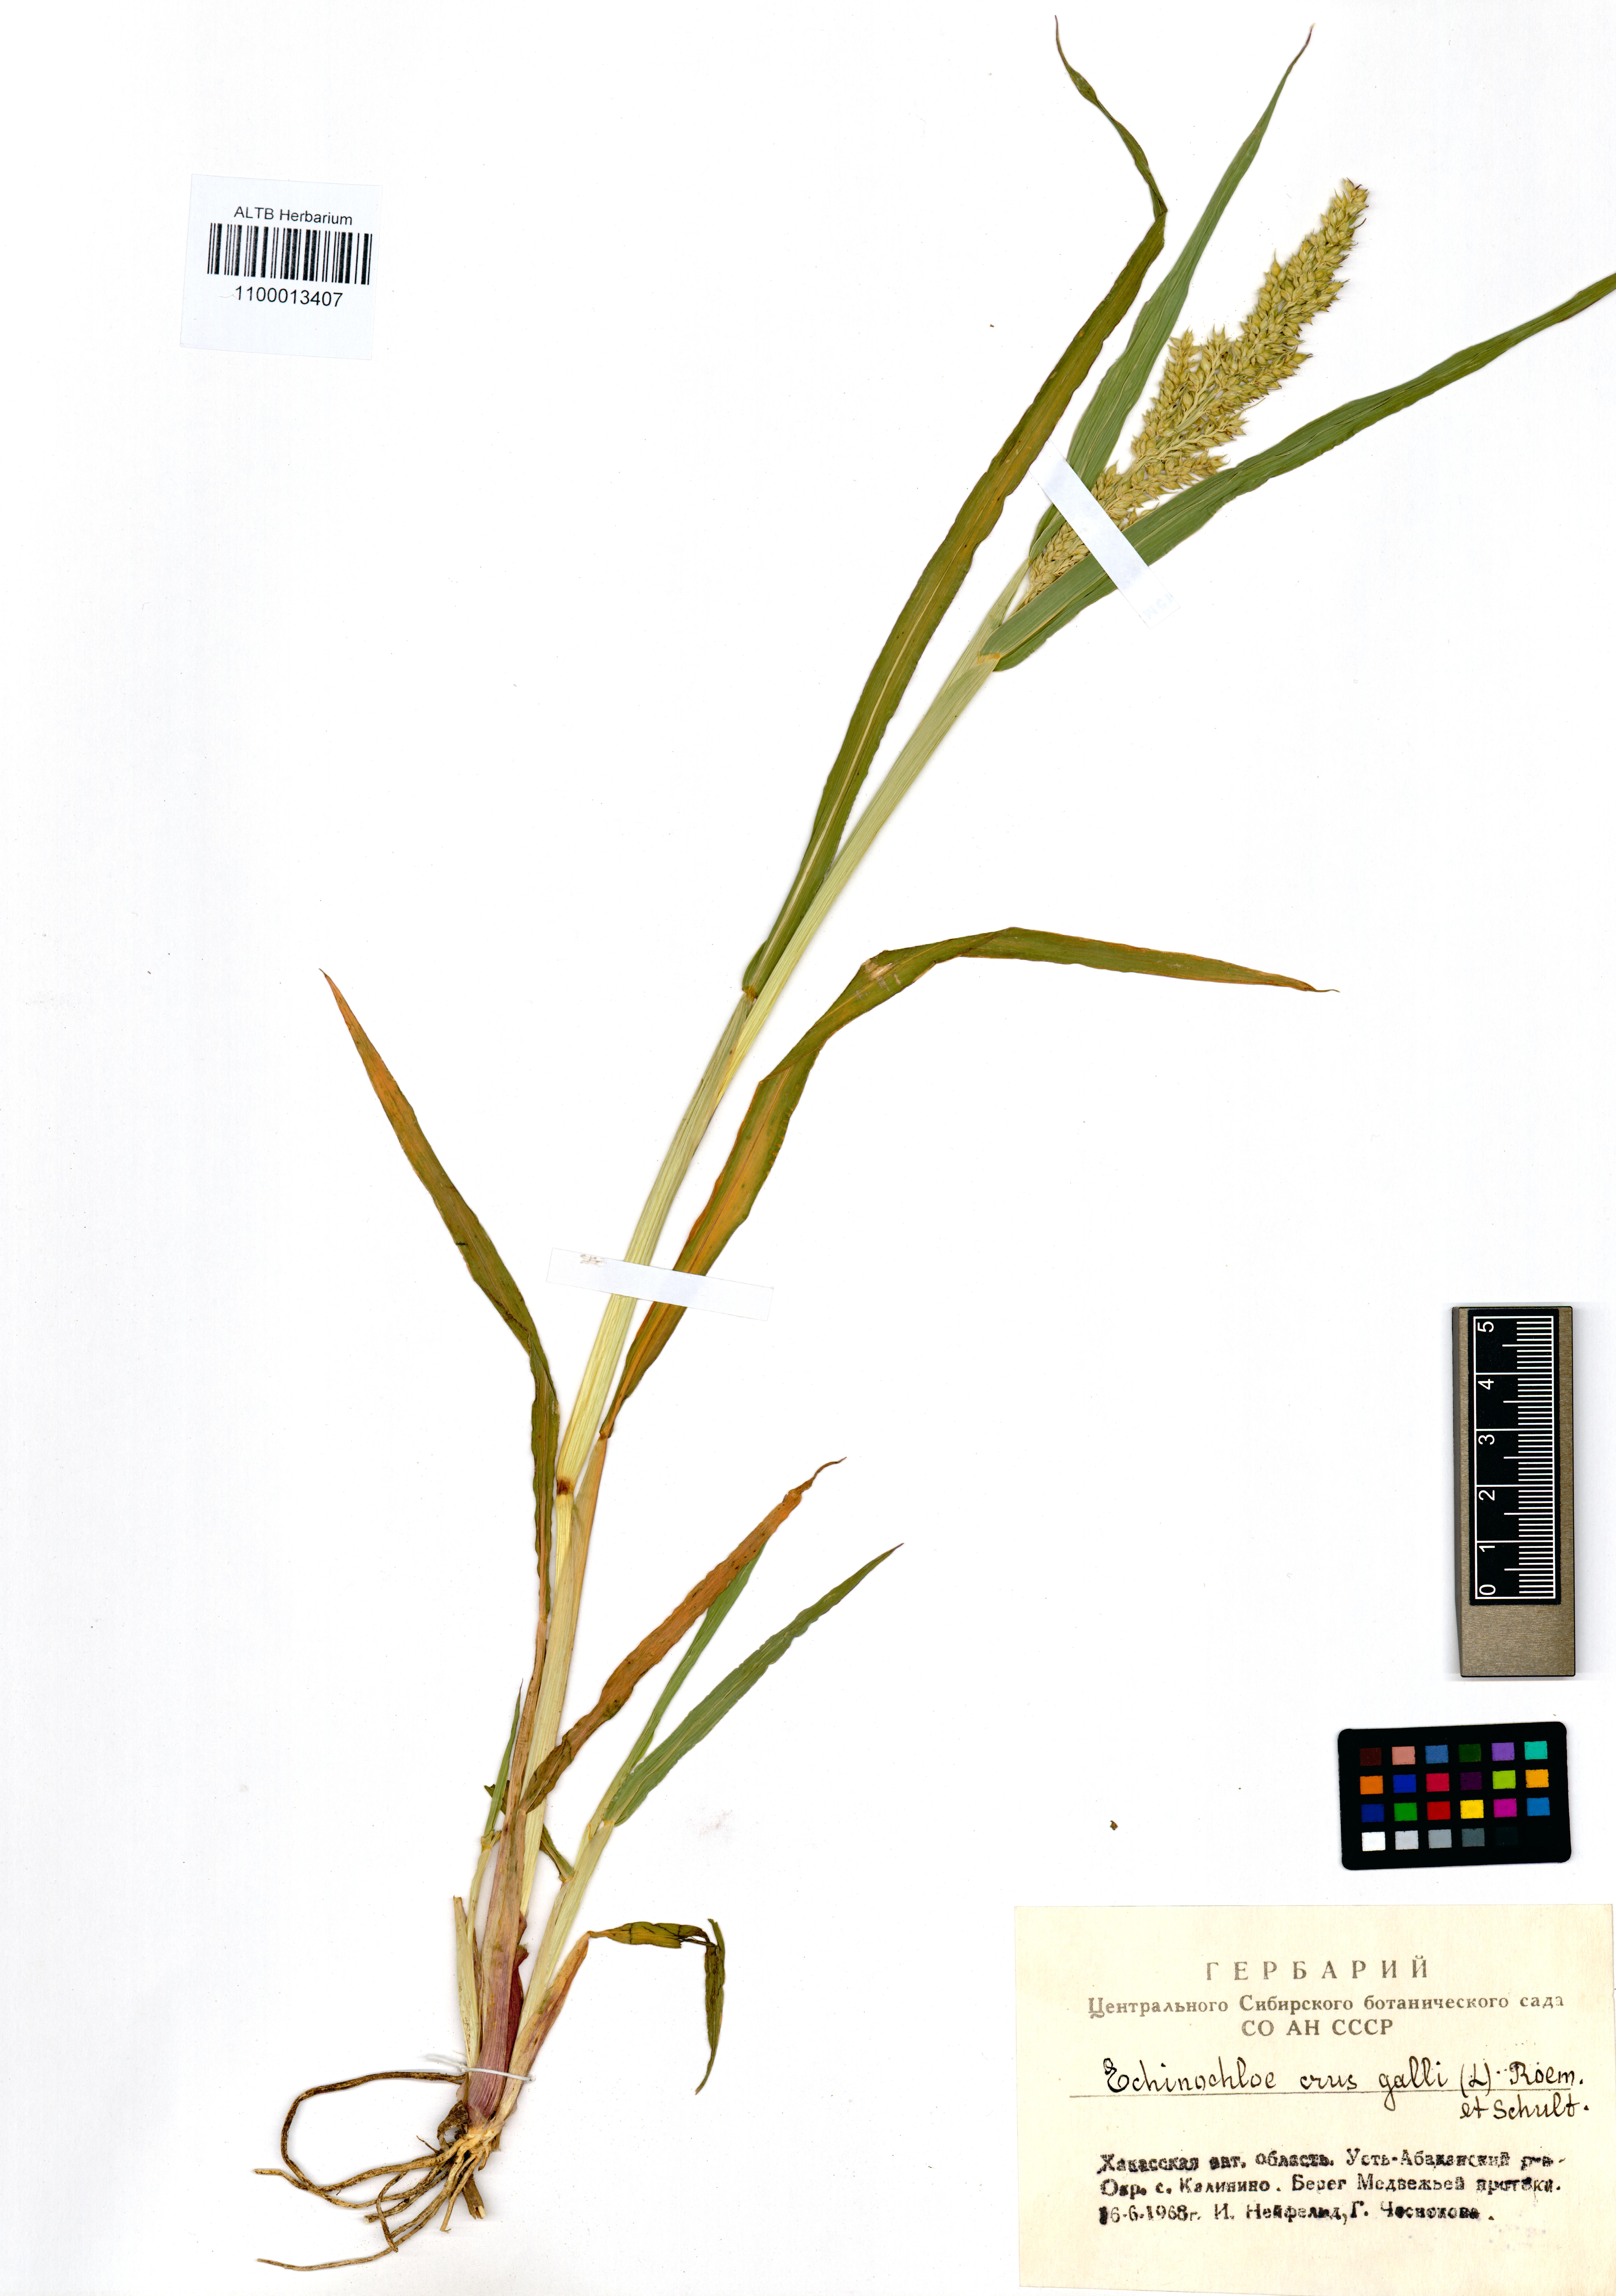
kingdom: Plantae
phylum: Tracheophyta
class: Liliopsida
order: Poales
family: Poaceae
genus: Echinochloa
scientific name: Echinochloa crus-galli
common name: Cockspur
